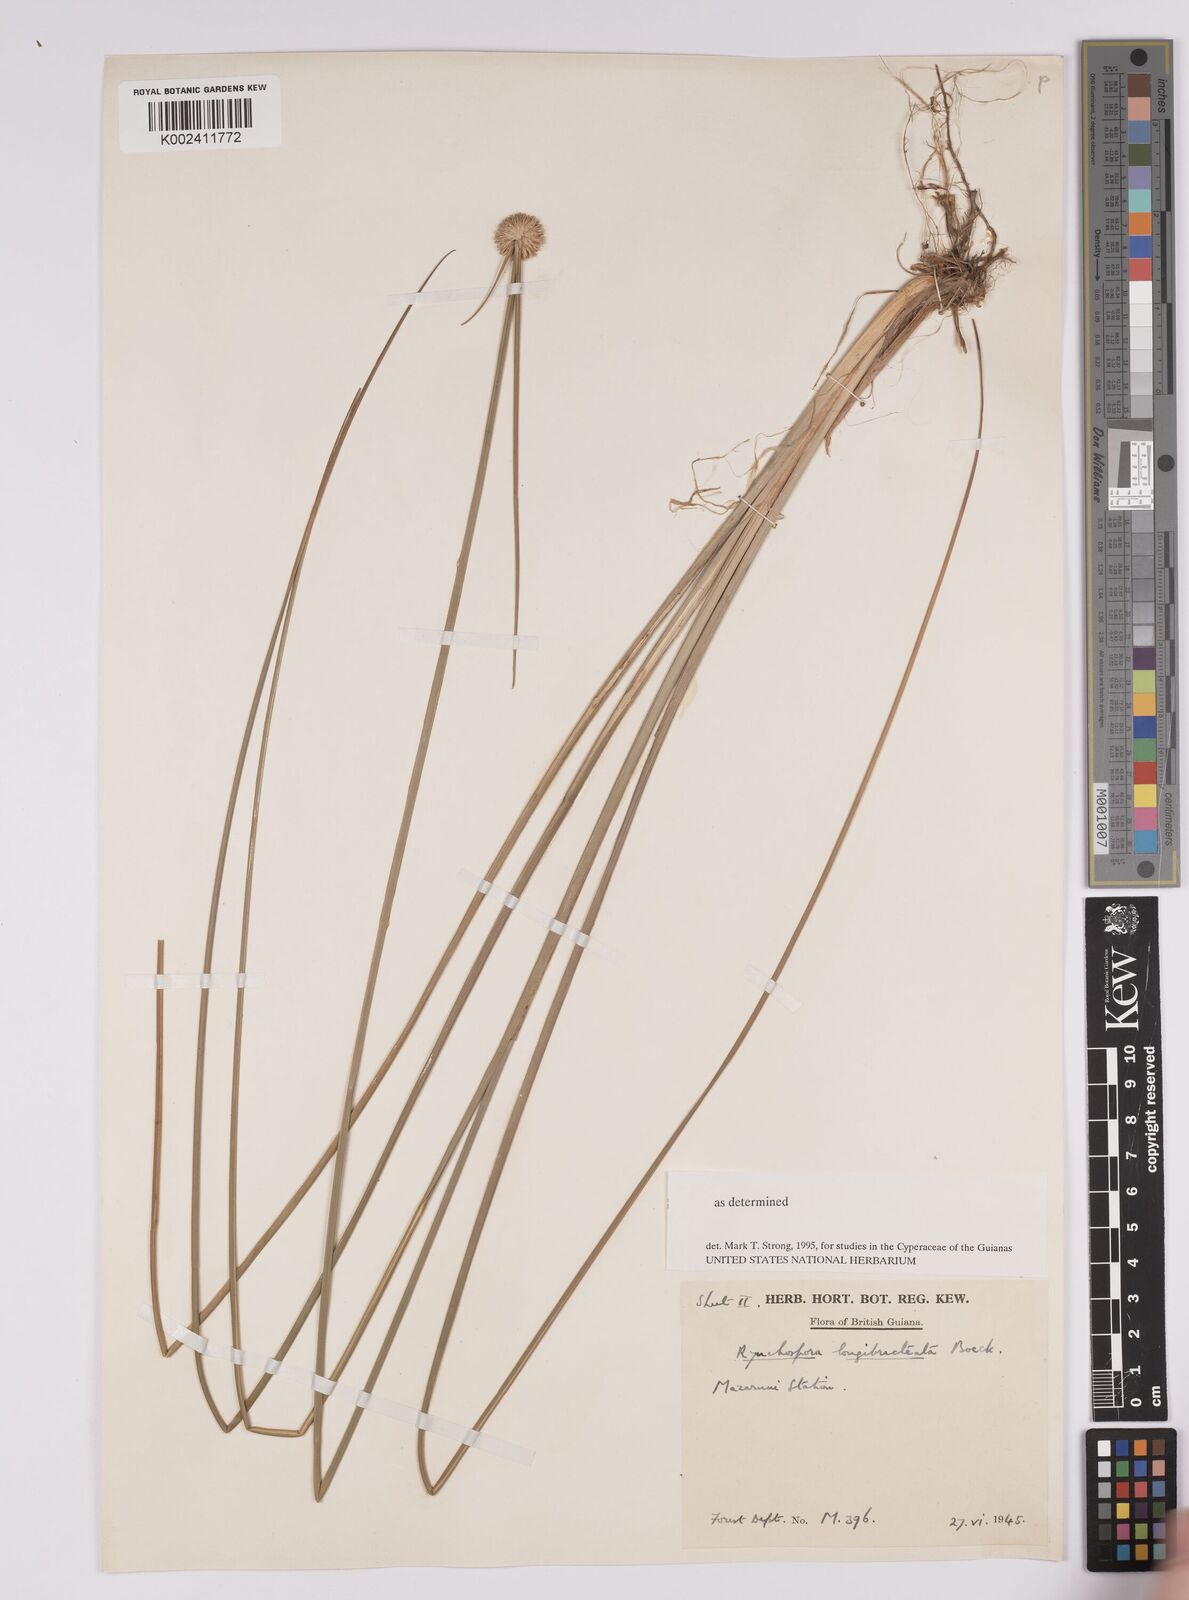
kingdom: Plantae
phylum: Tracheophyta
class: Liliopsida
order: Poales
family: Cyperaceae
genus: Rhynchospora
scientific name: Rhynchospora longibracteata
